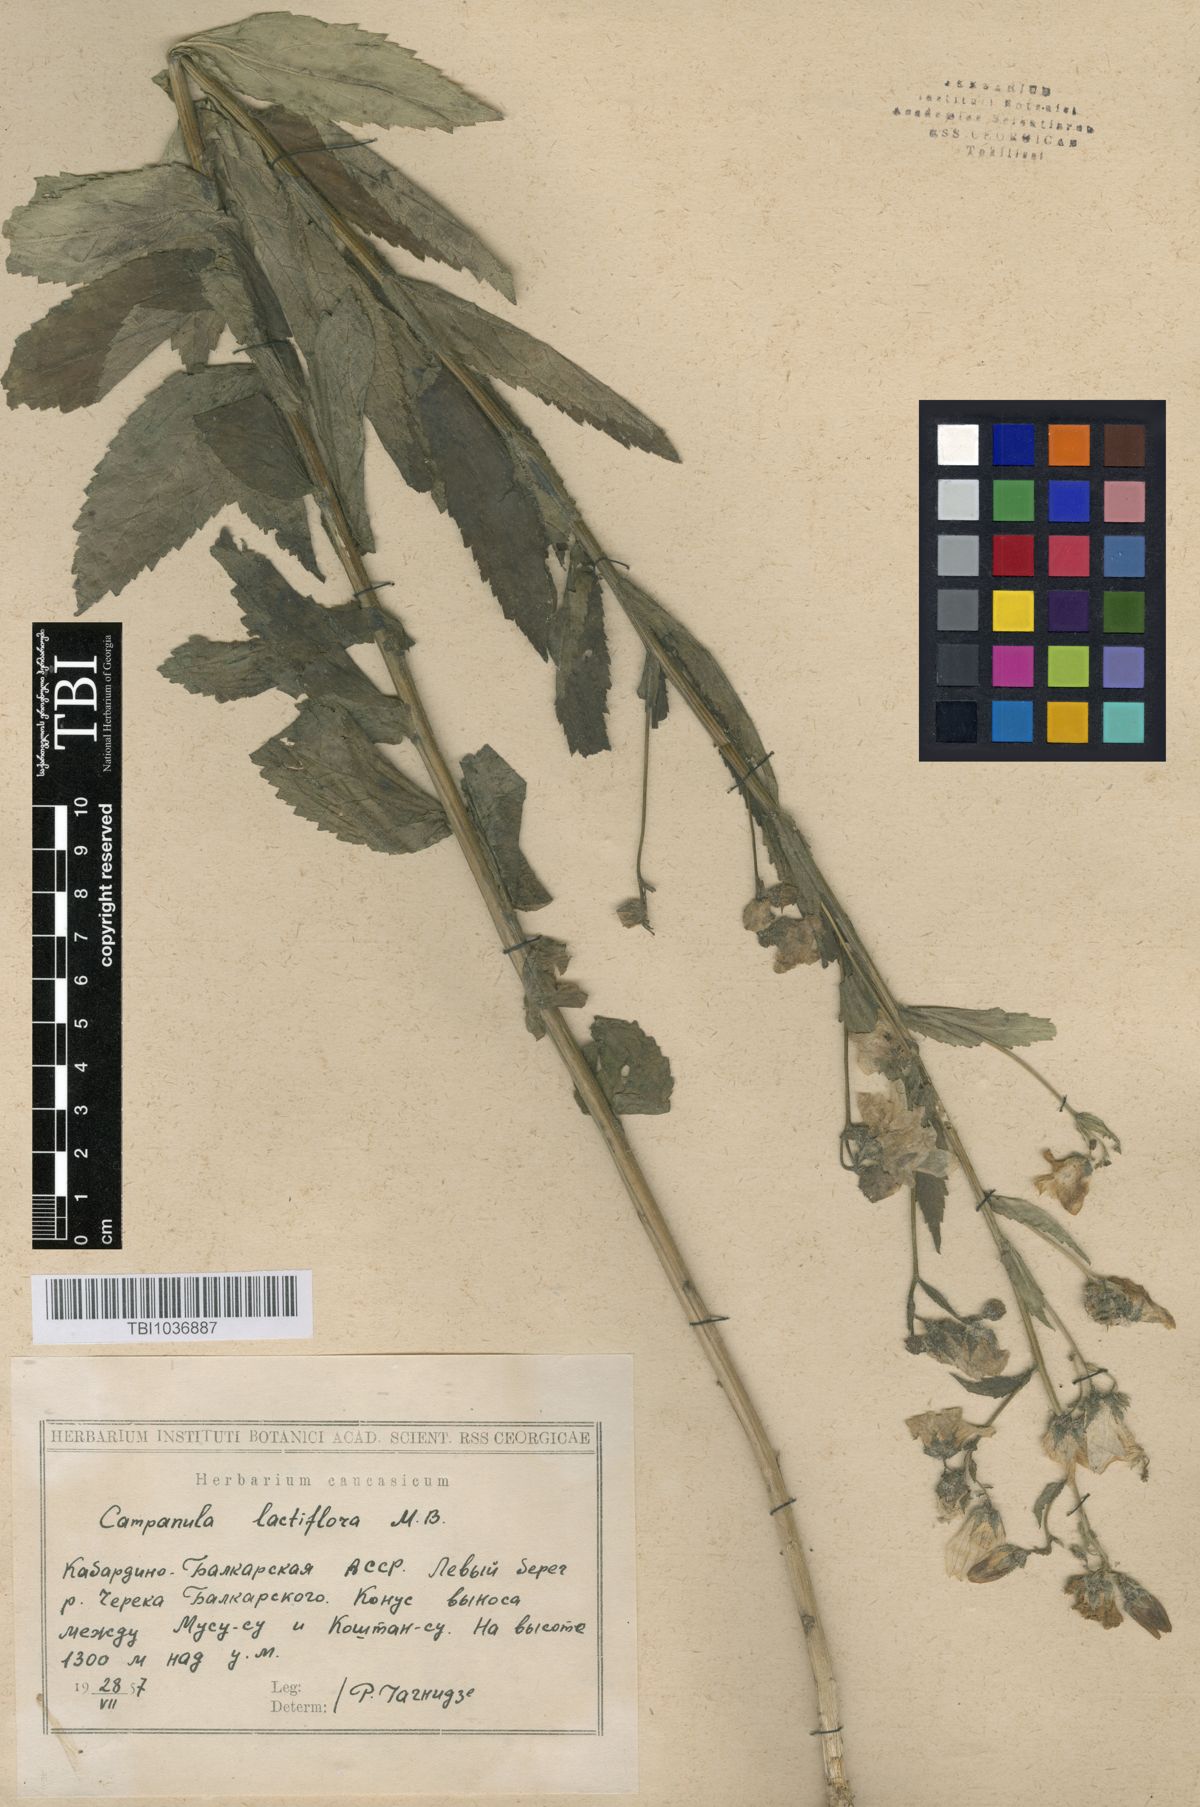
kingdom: Plantae
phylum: Tracheophyta
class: Magnoliopsida
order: Asterales
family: Campanulaceae
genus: Campanula
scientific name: Campanula lactiflora
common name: Milky bellflower
